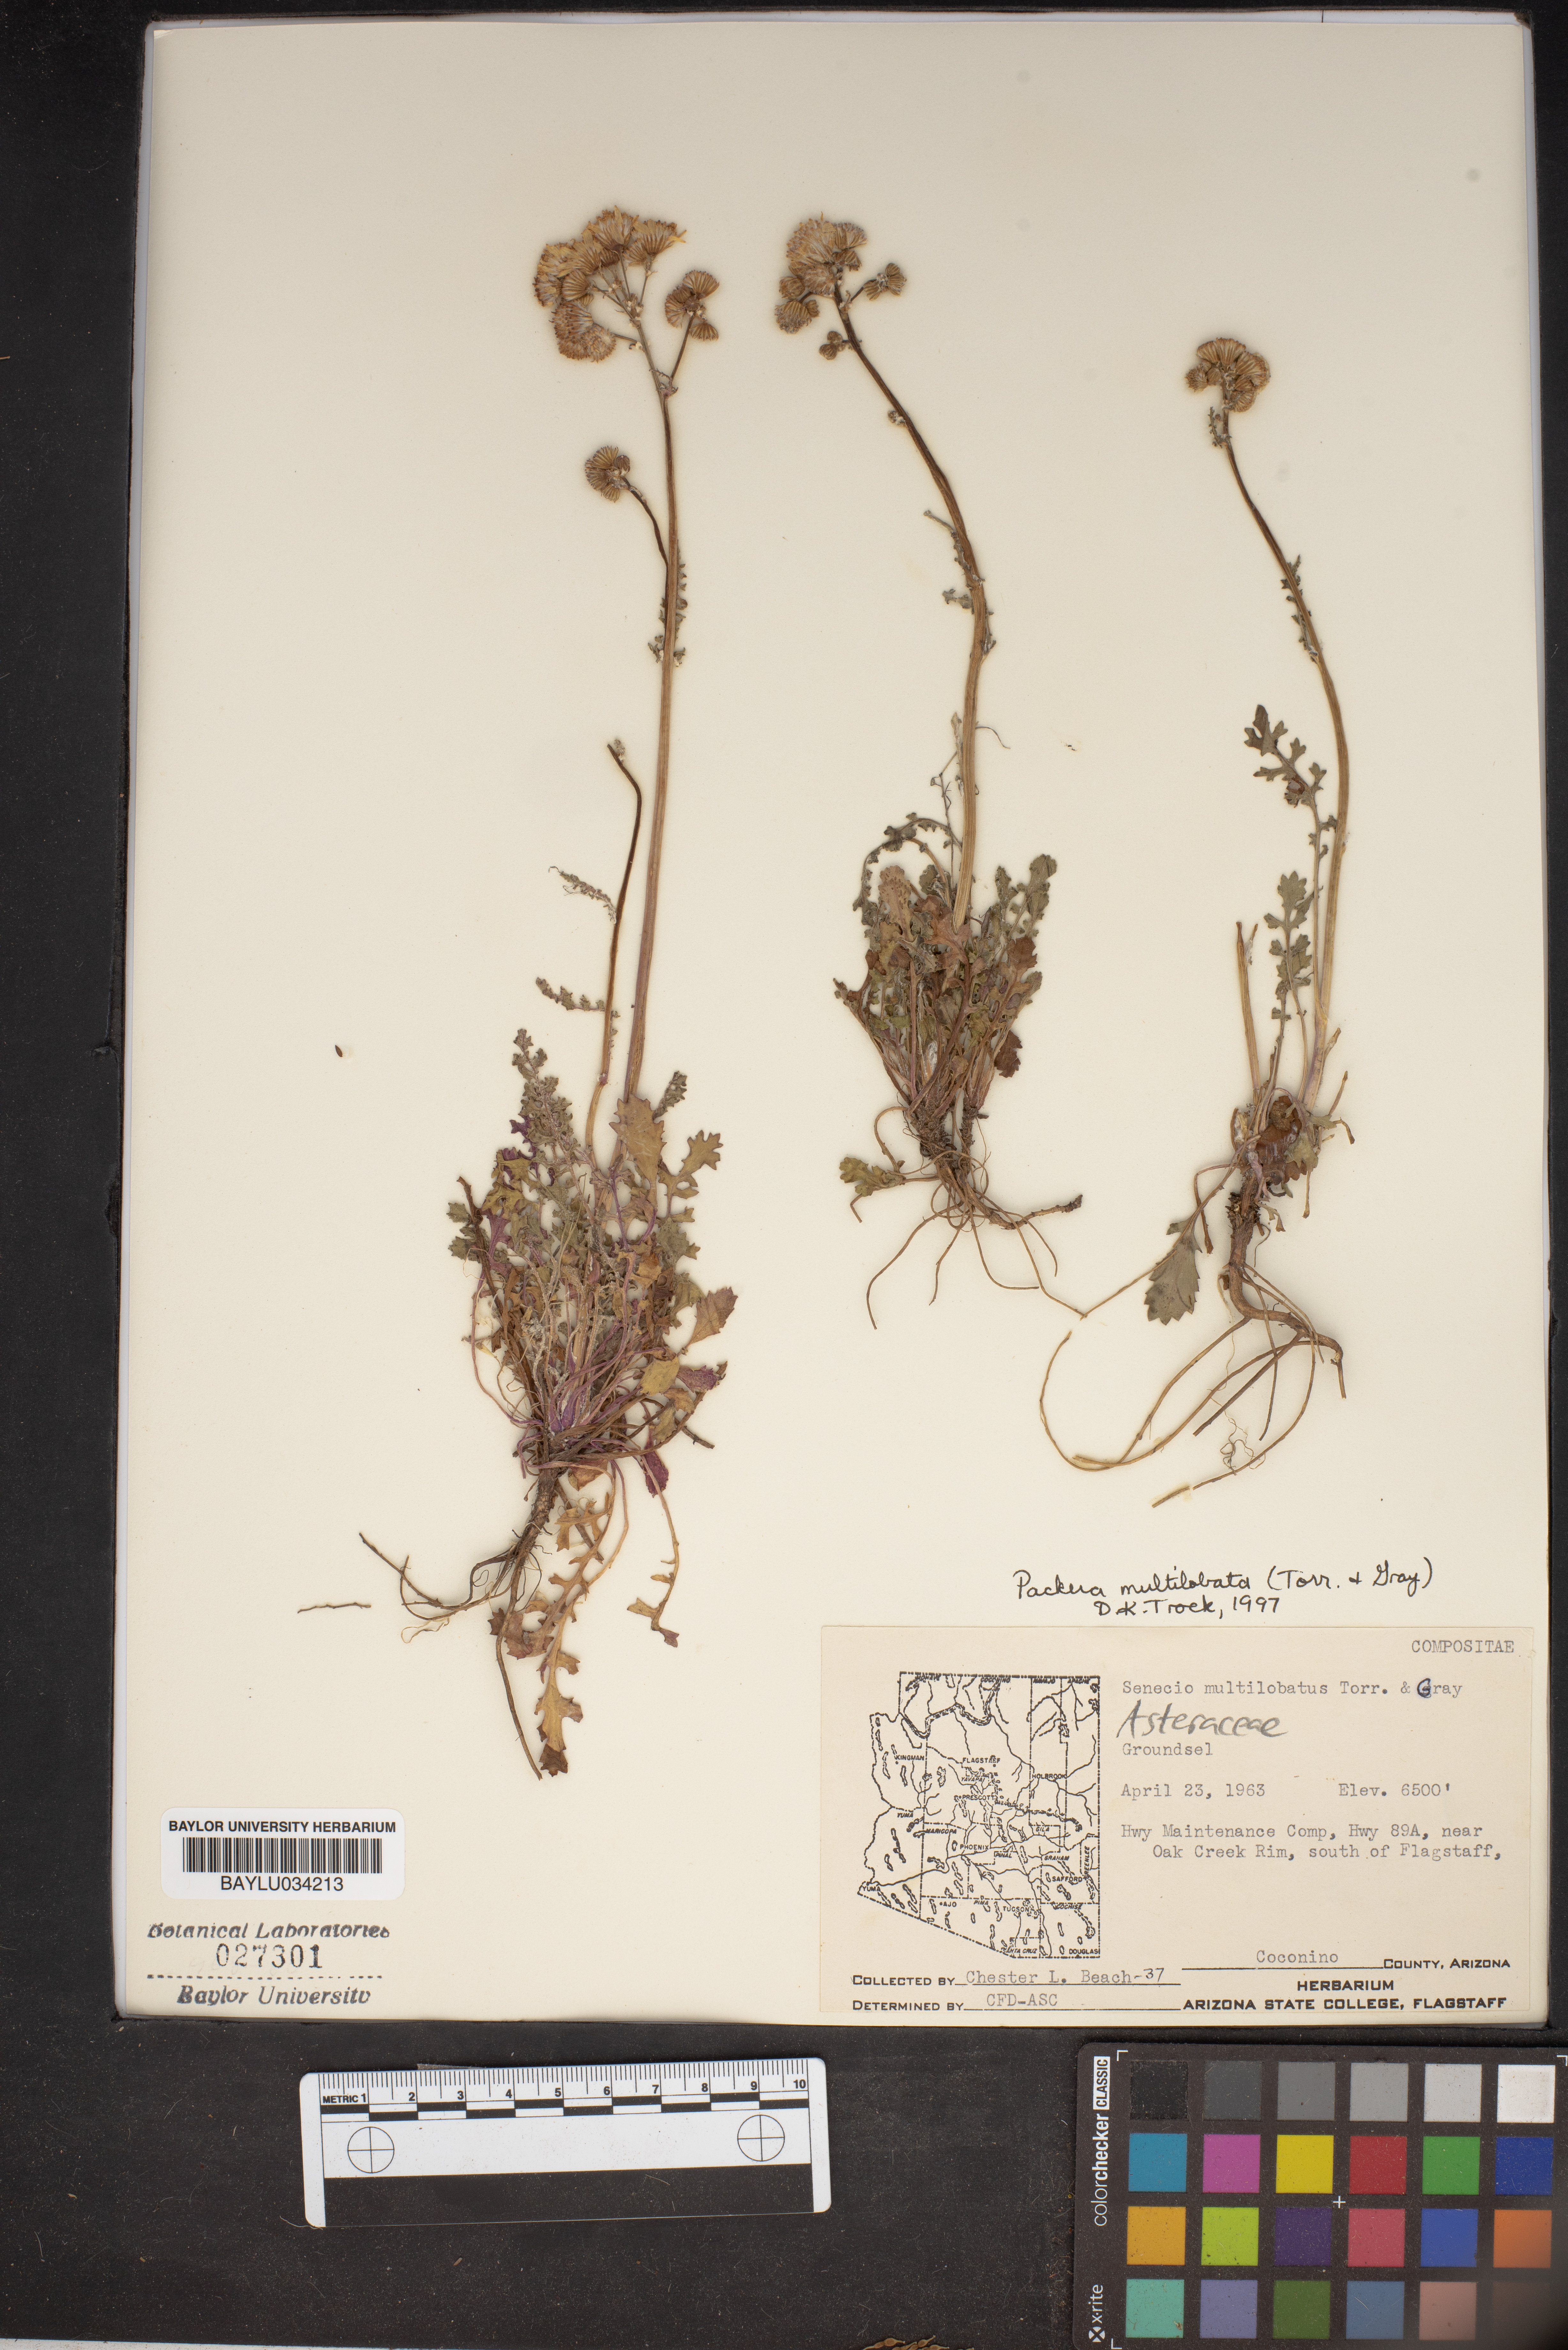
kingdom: Plantae
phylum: Tracheophyta
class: Magnoliopsida
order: Asterales
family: Asteraceae
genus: Packera
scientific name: Packera multilobata
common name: Lobe-leaf groundsel
